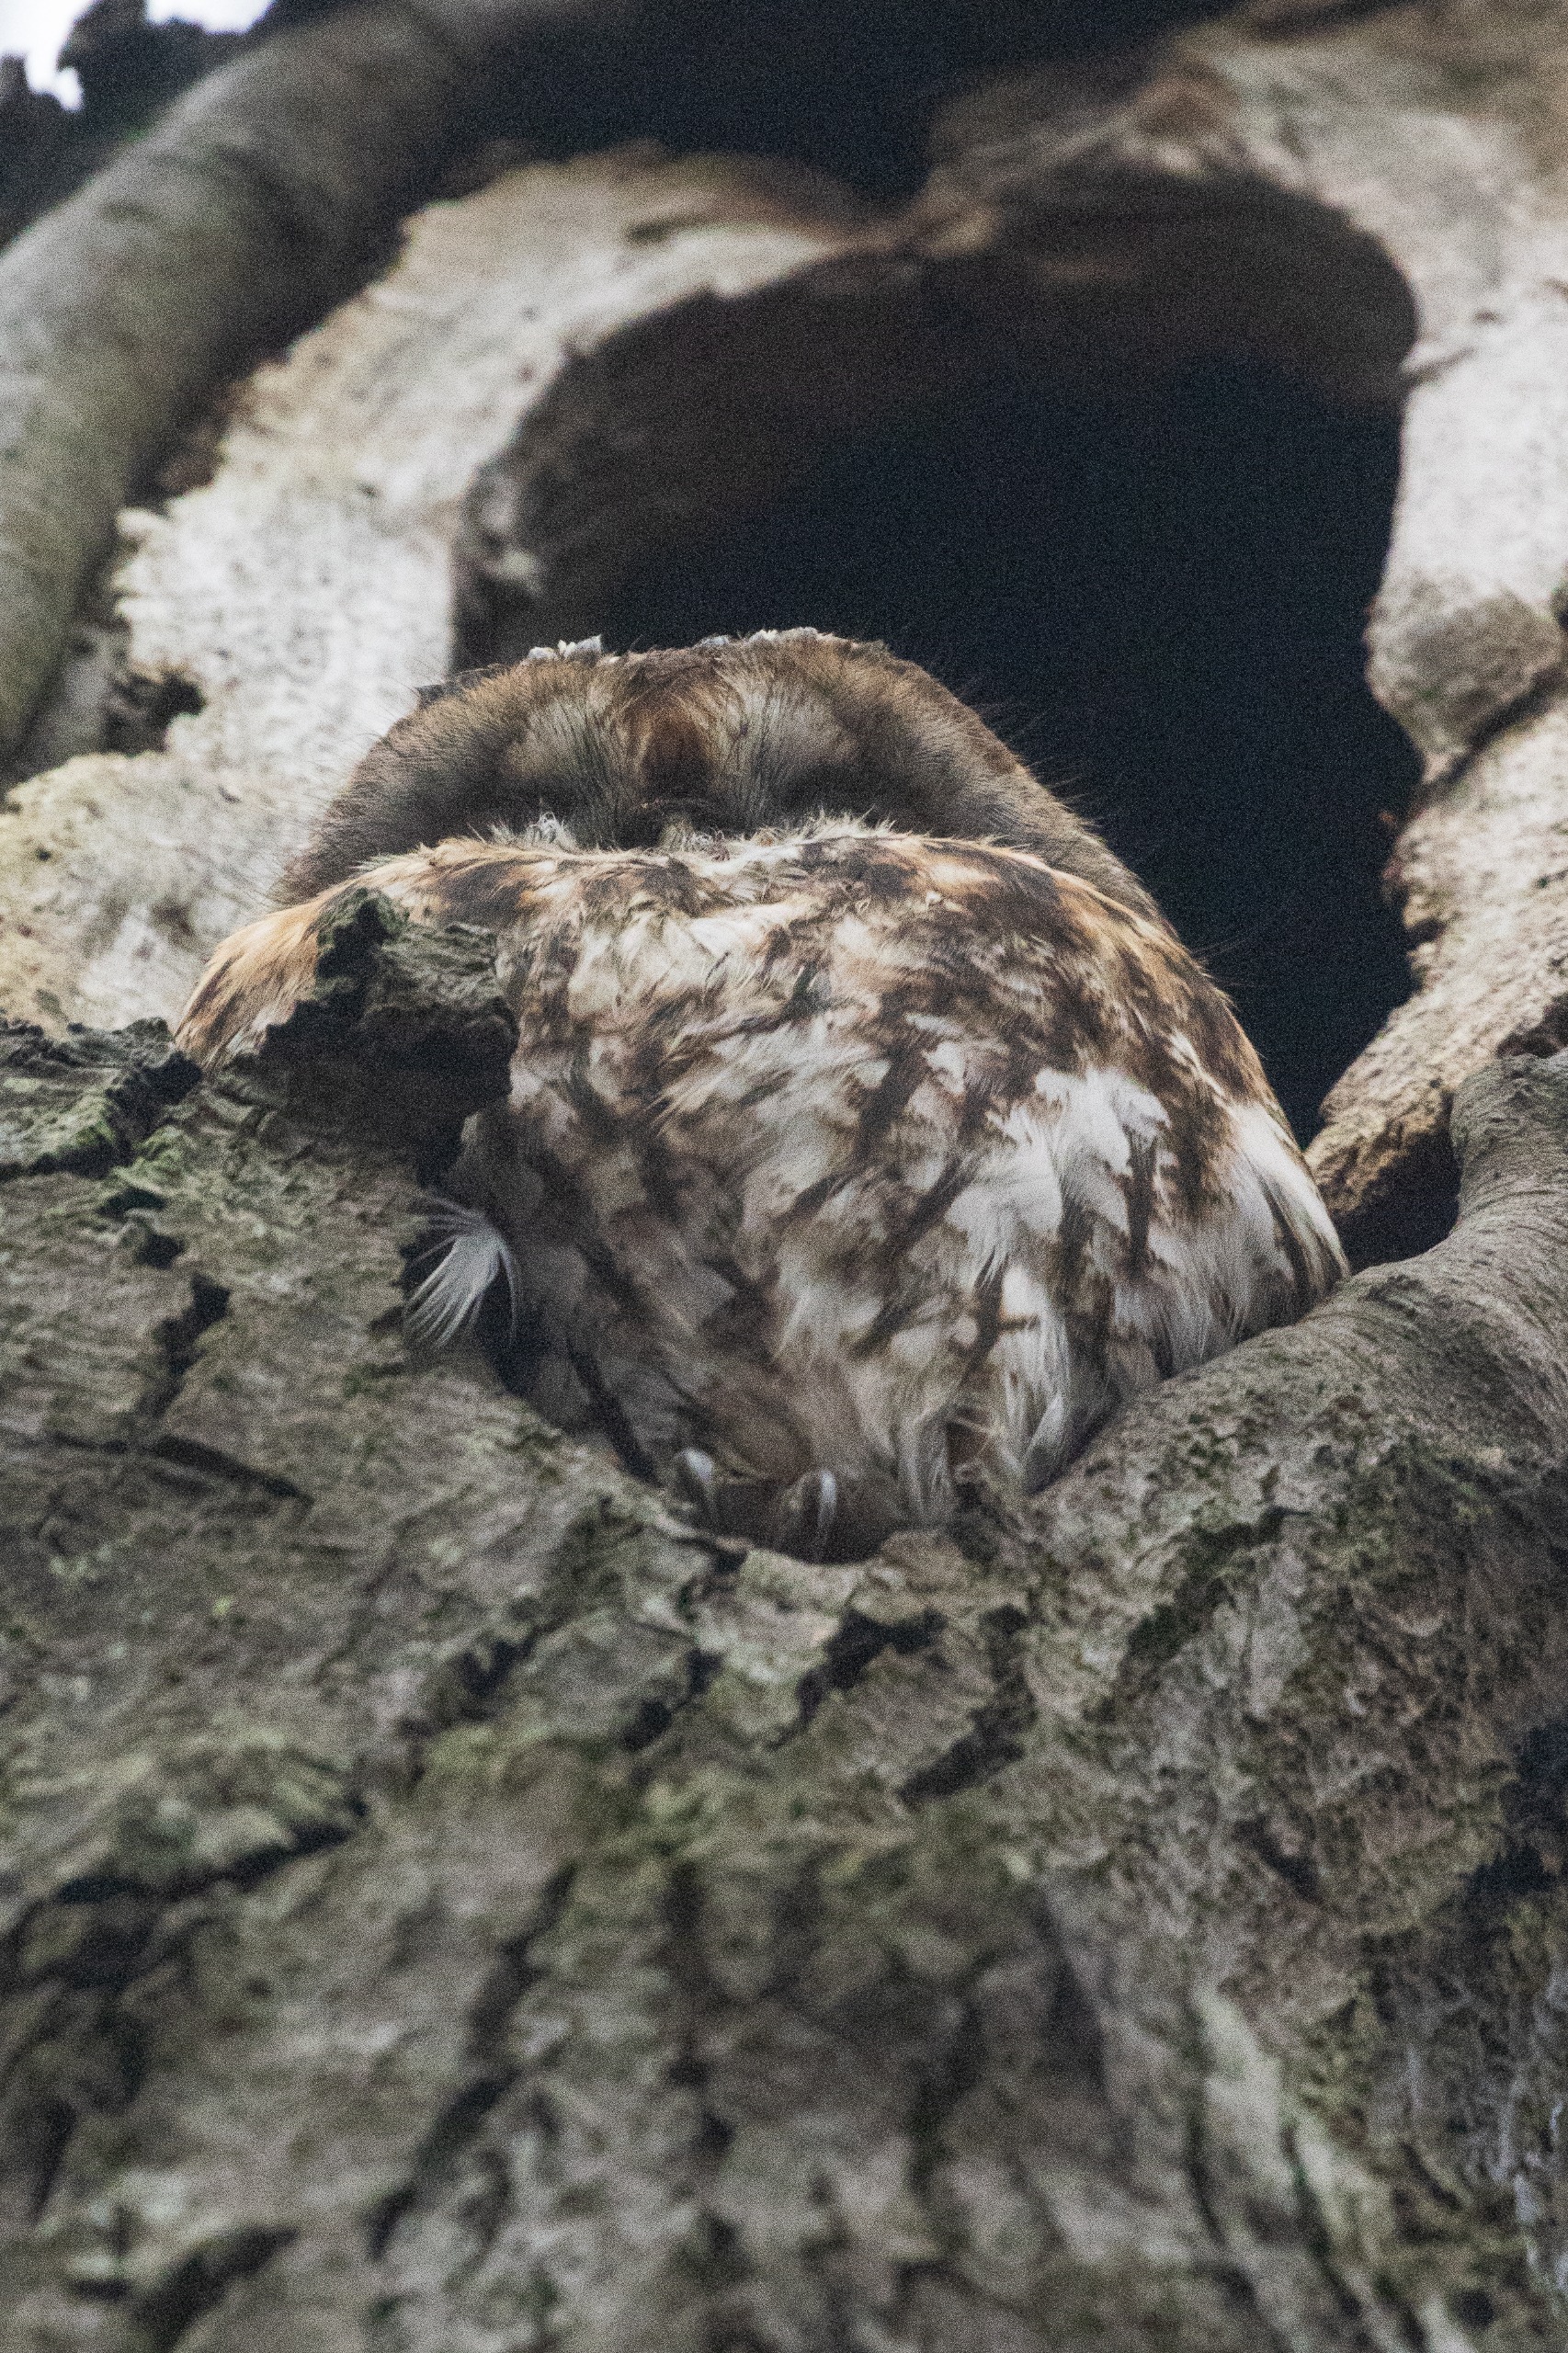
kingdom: Animalia
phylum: Chordata
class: Aves
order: Strigiformes
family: Strigidae
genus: Strix
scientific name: Strix aluco
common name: Natugle
